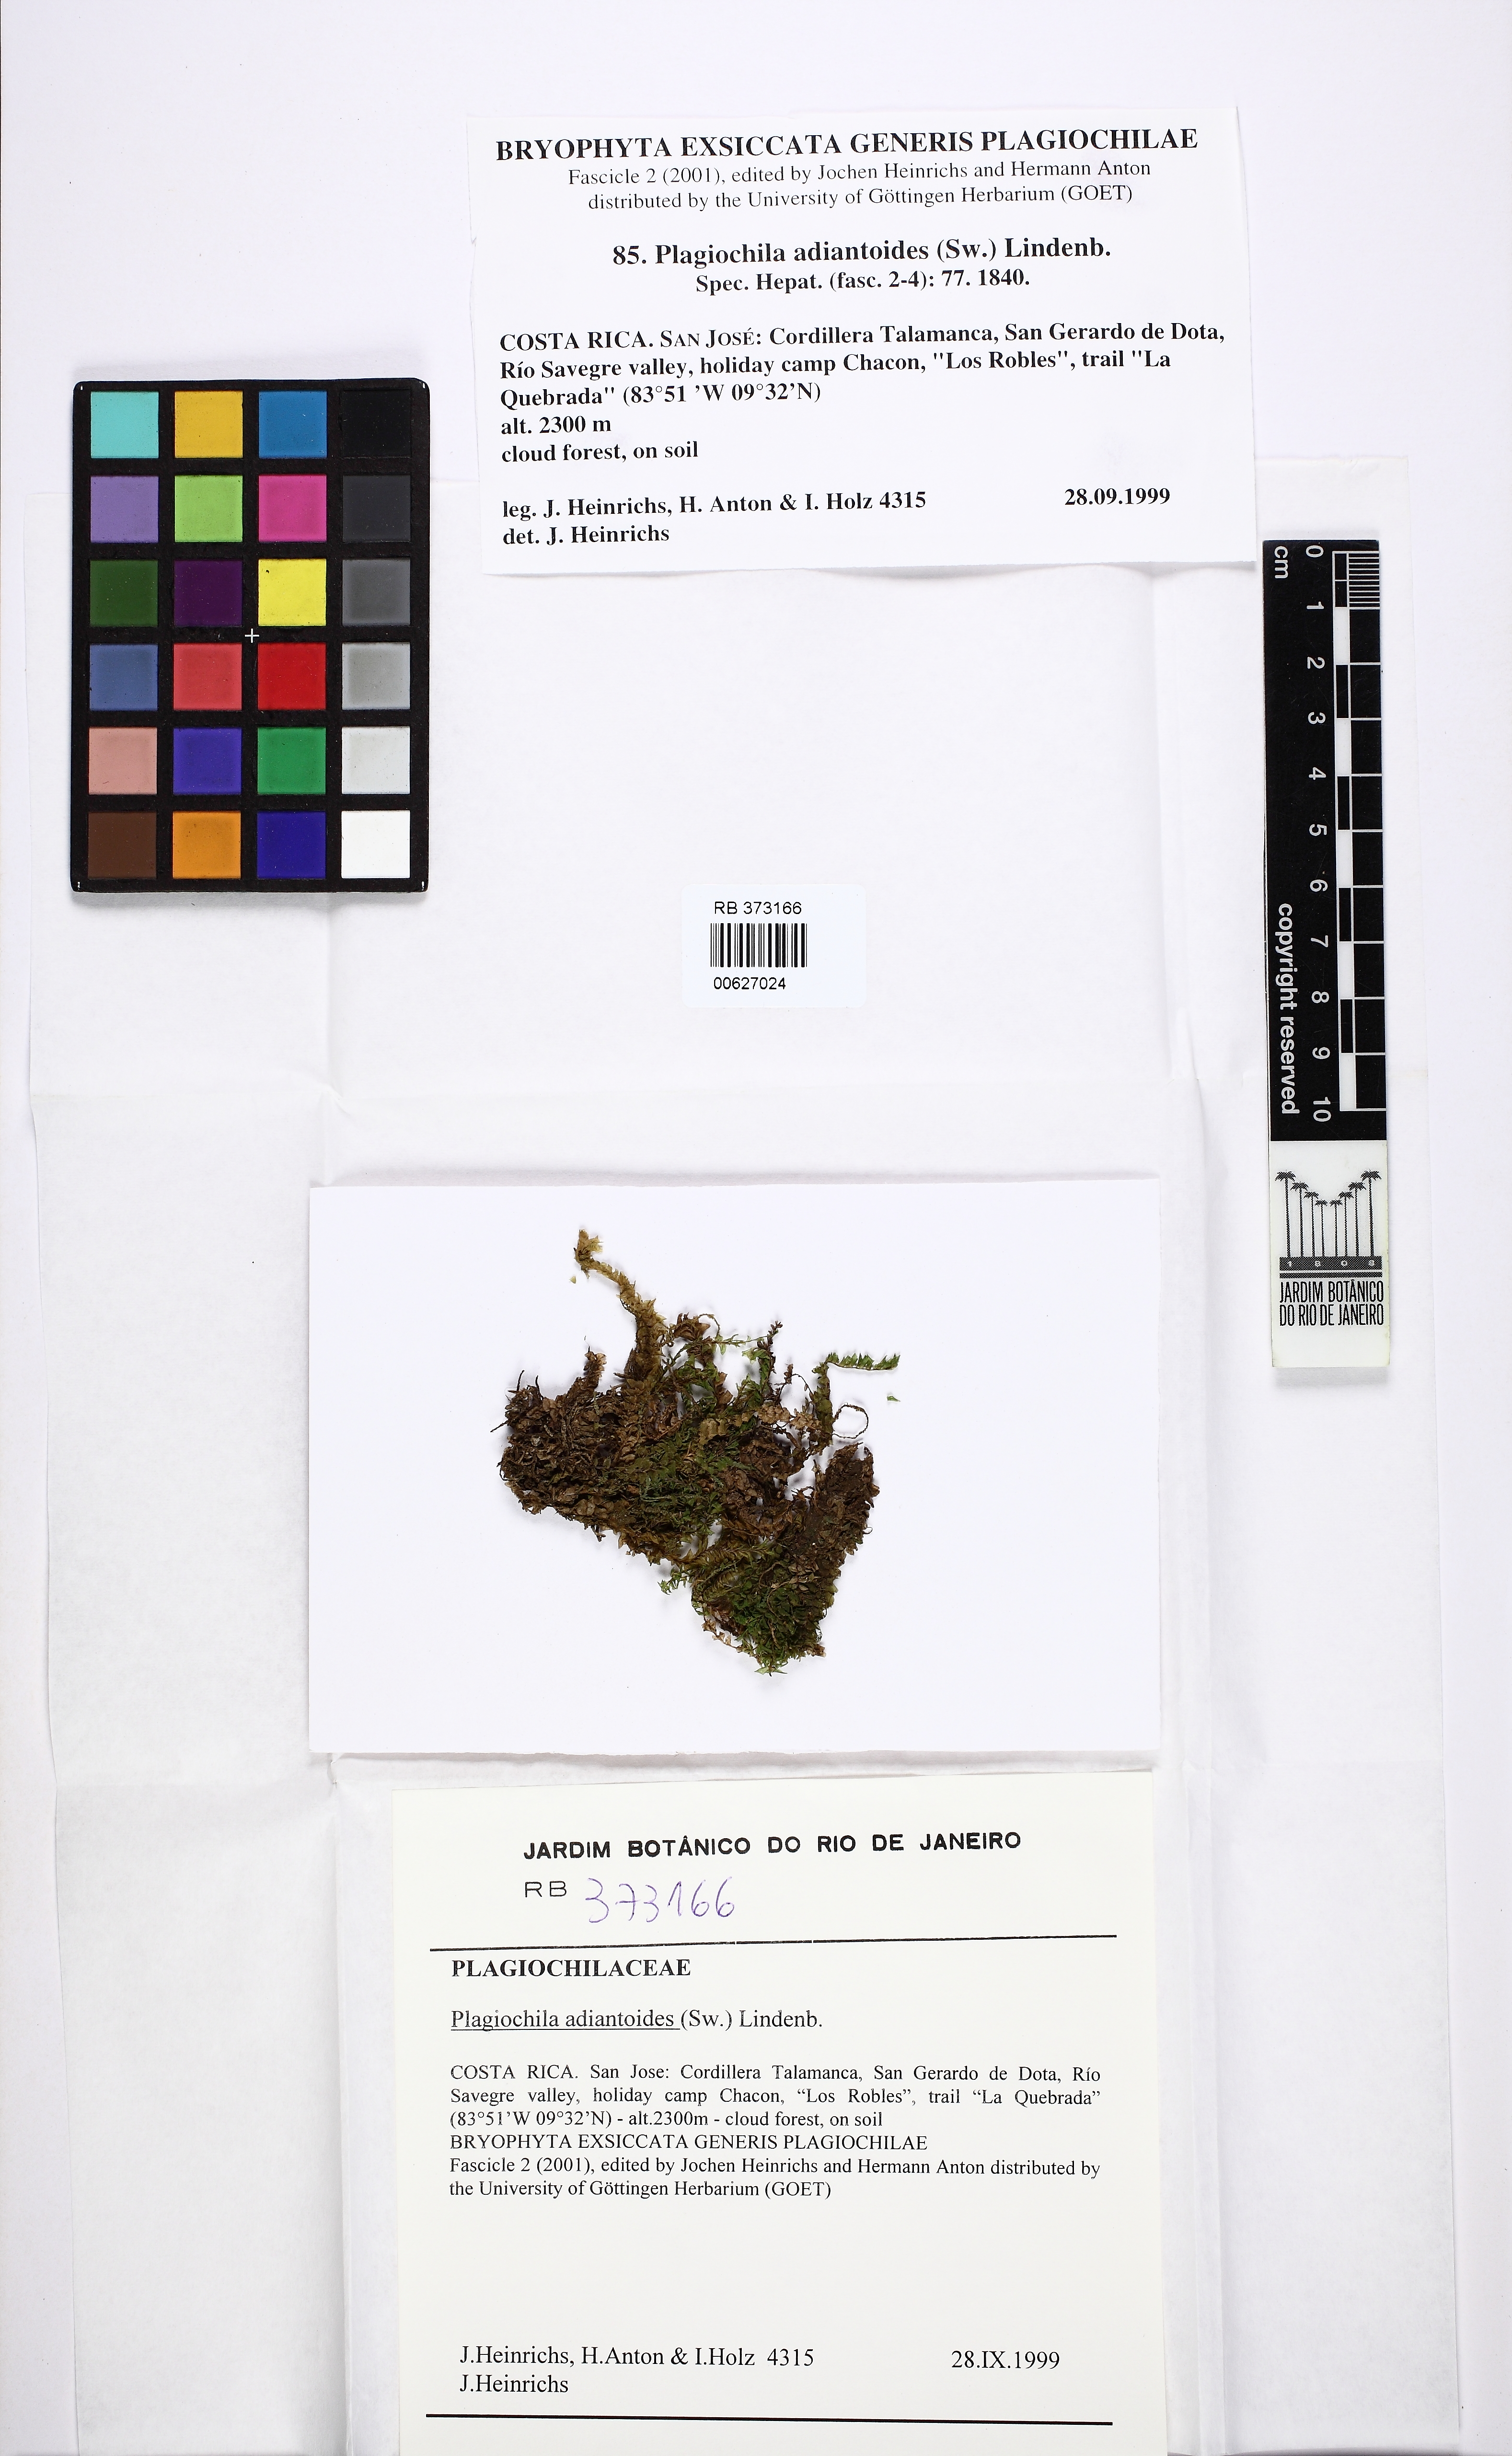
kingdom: Plantae
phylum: Marchantiophyta
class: Jungermanniopsida
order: Jungermanniales
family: Plagiochilaceae
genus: Plagiochila
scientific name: Plagiochila adianthoides
